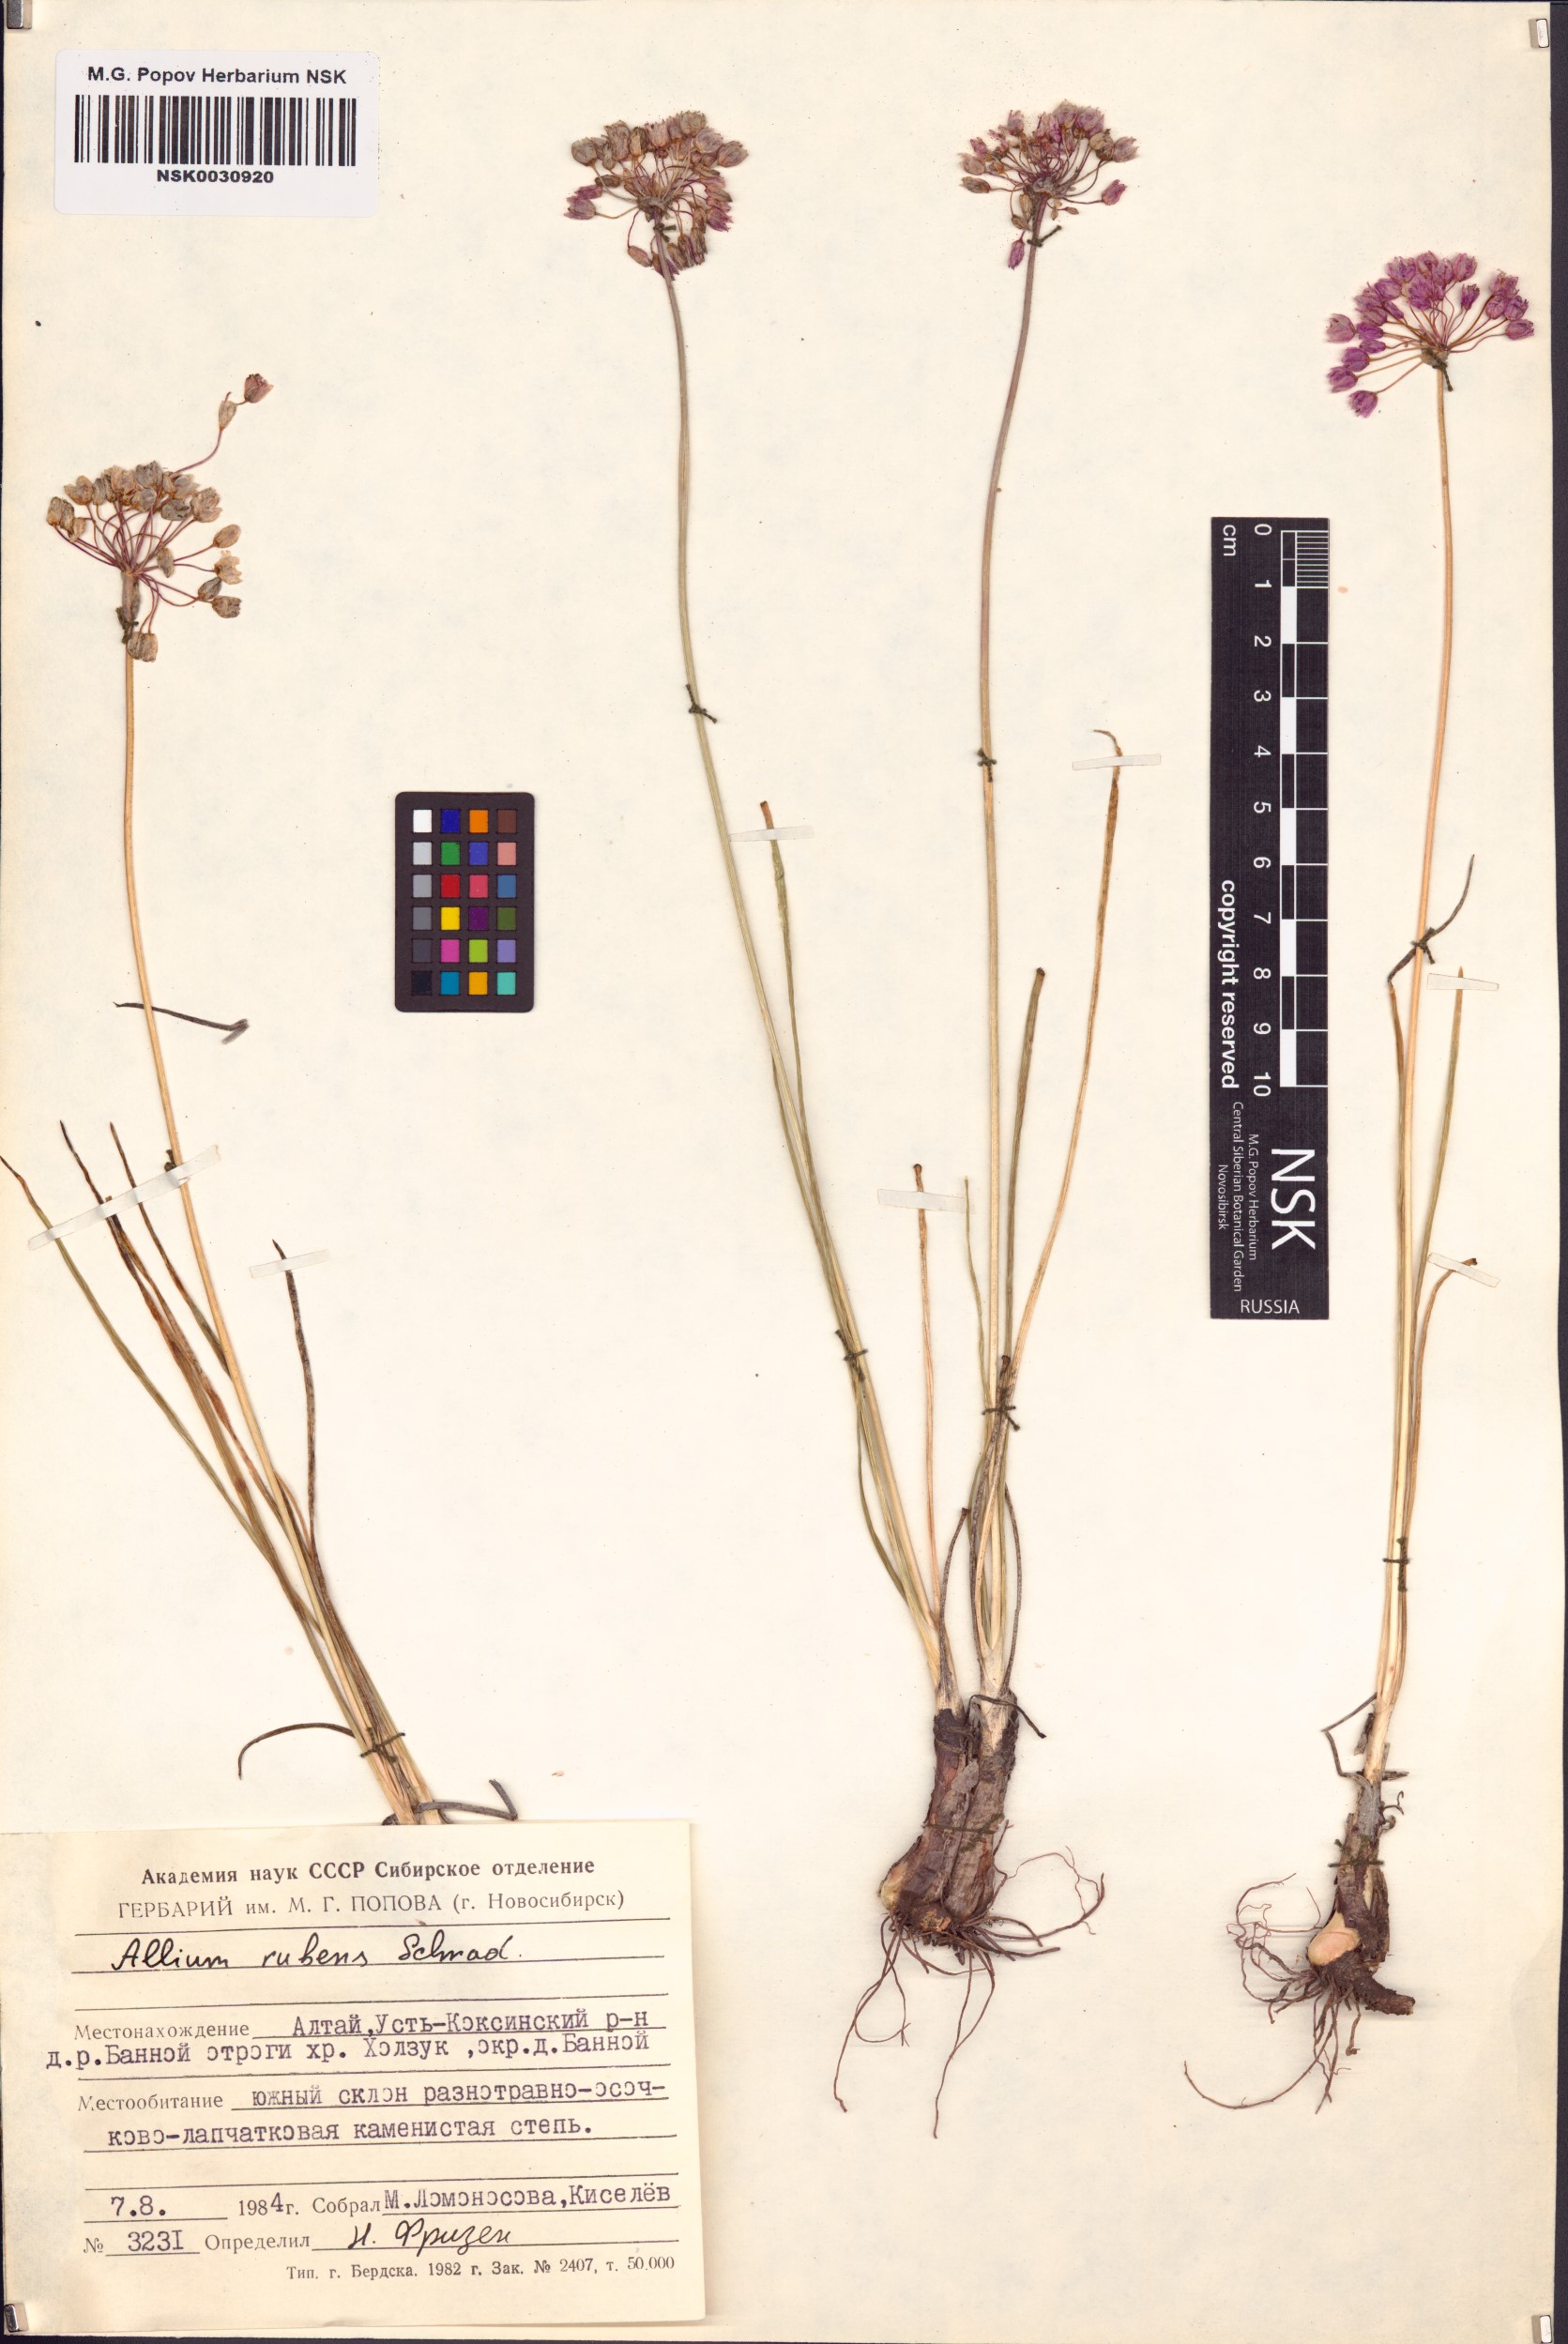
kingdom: Plantae
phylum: Tracheophyta
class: Liliopsida
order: Asparagales
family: Amaryllidaceae
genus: Allium
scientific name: Allium rubens
